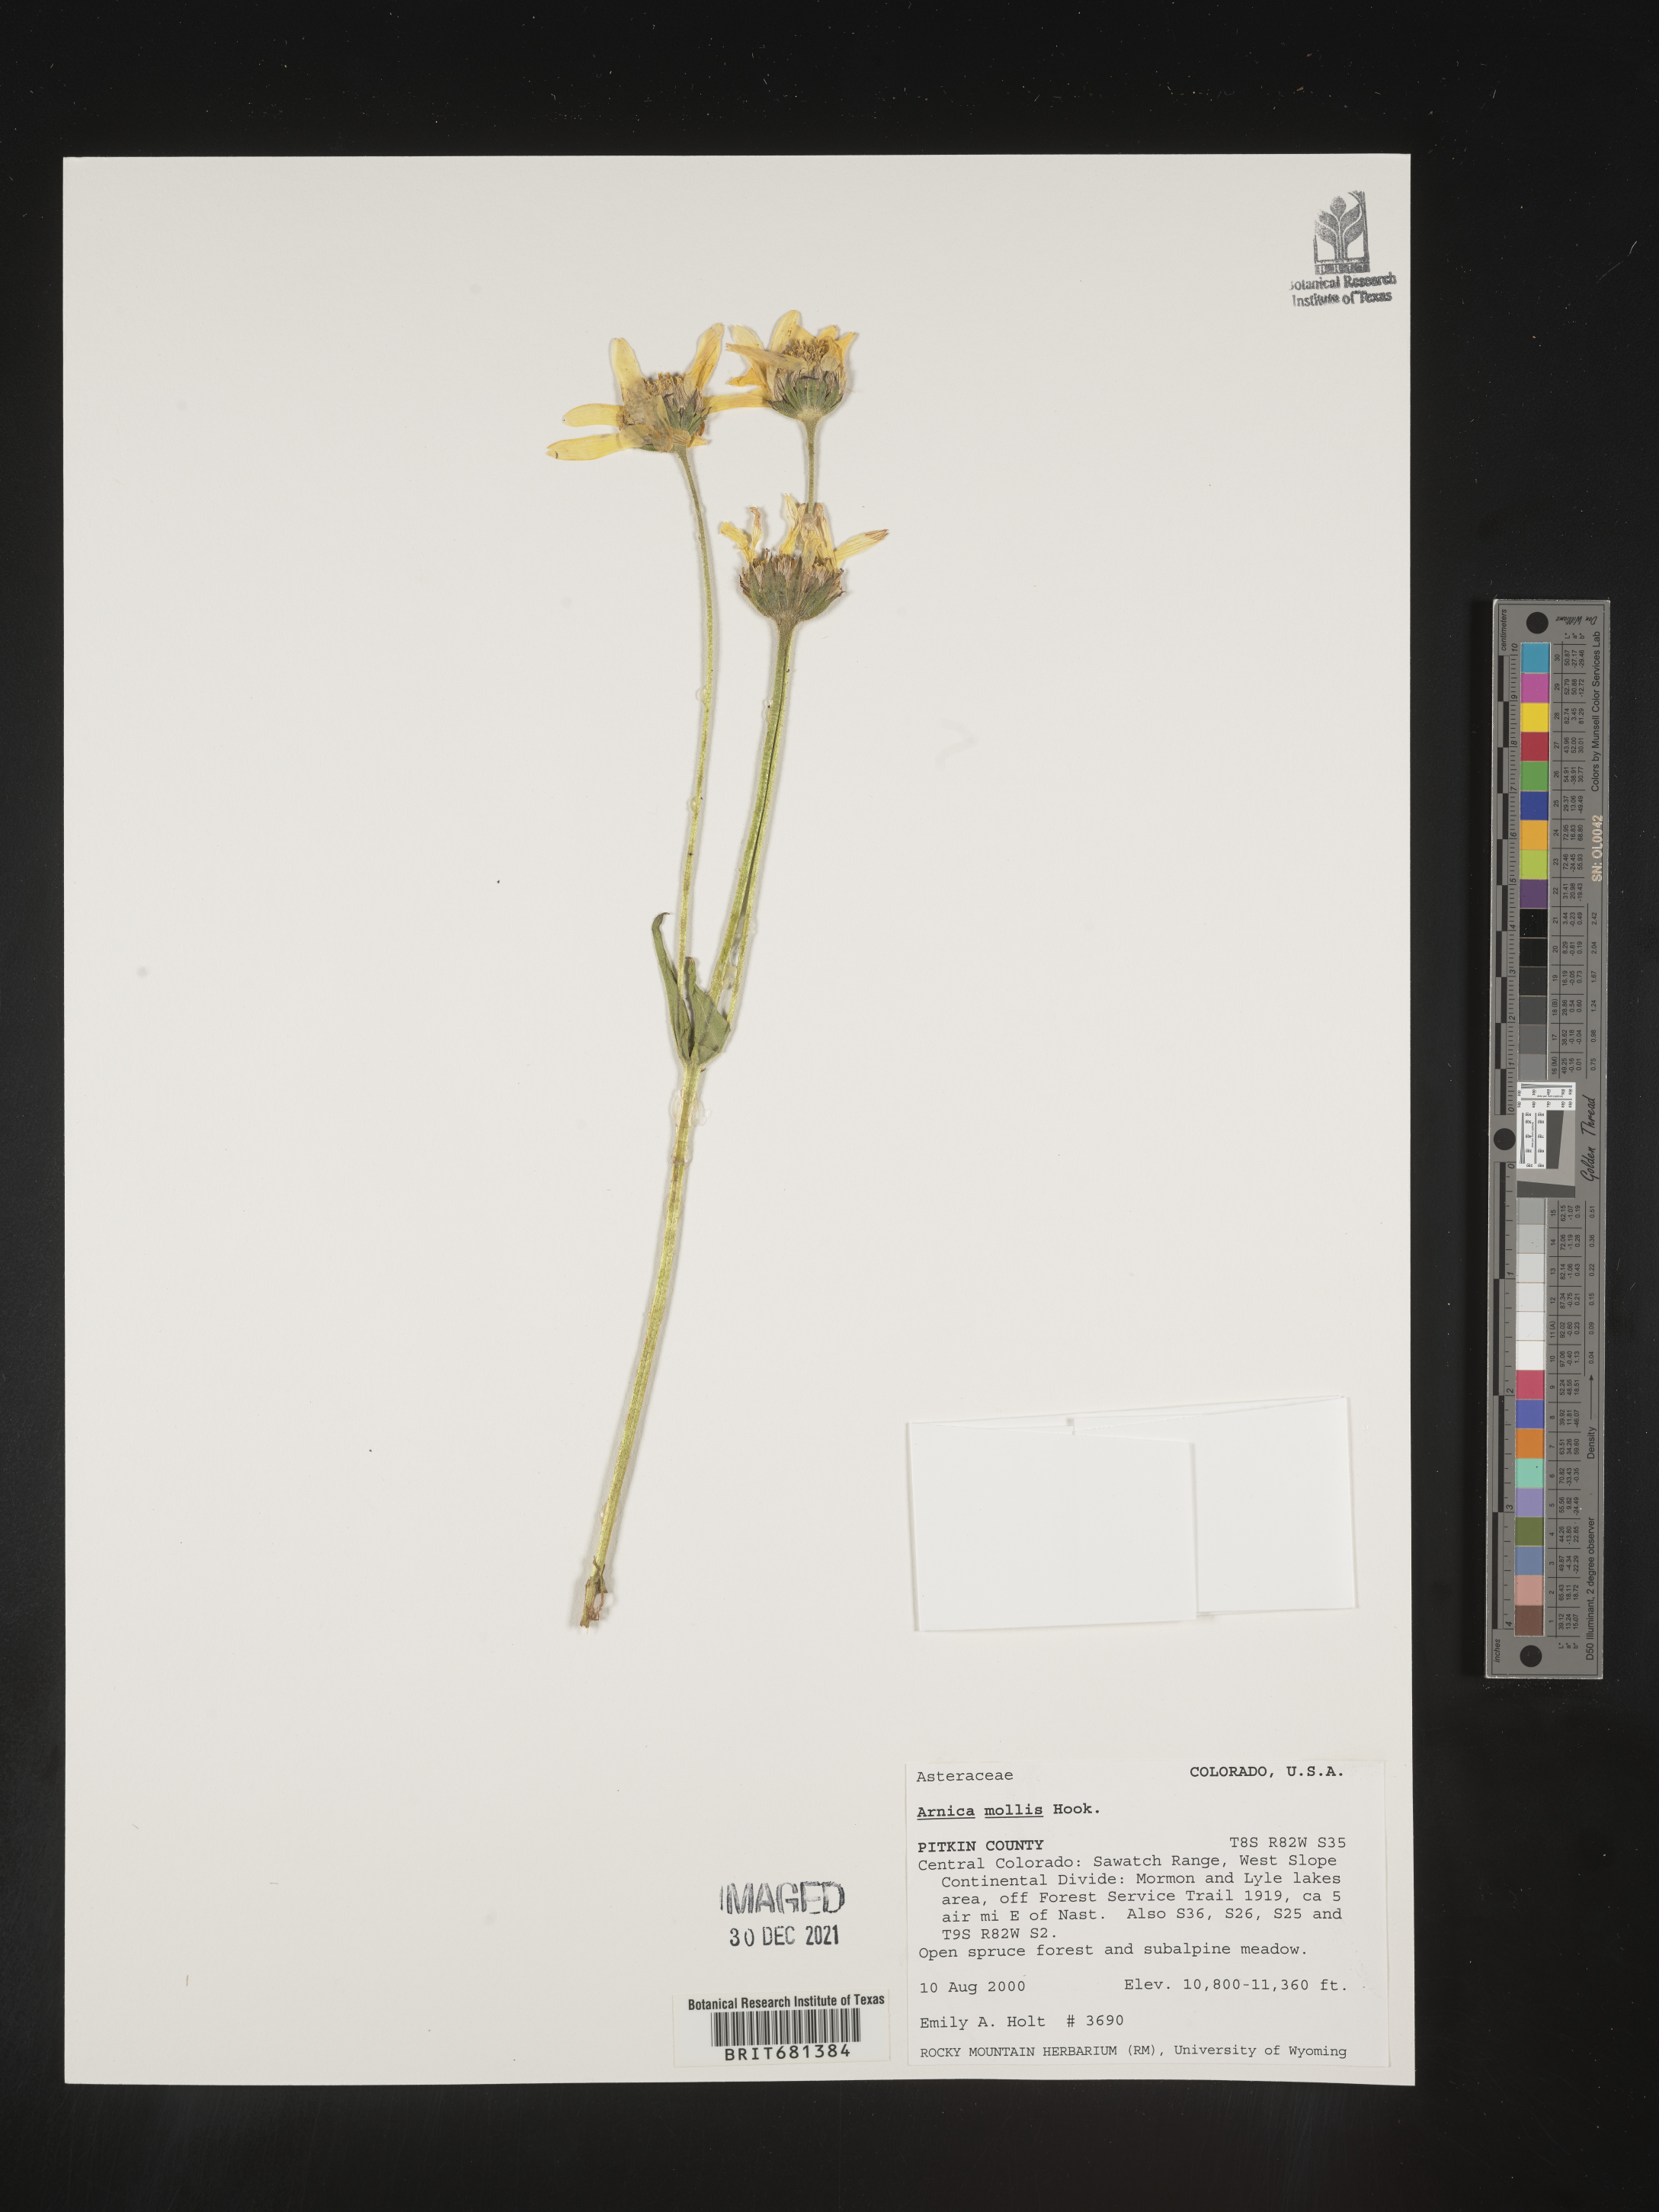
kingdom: Plantae
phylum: Tracheophyta
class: Magnoliopsida
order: Asterales
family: Asteraceae
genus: Arnica
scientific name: Arnica mollis
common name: Hairy arnica
